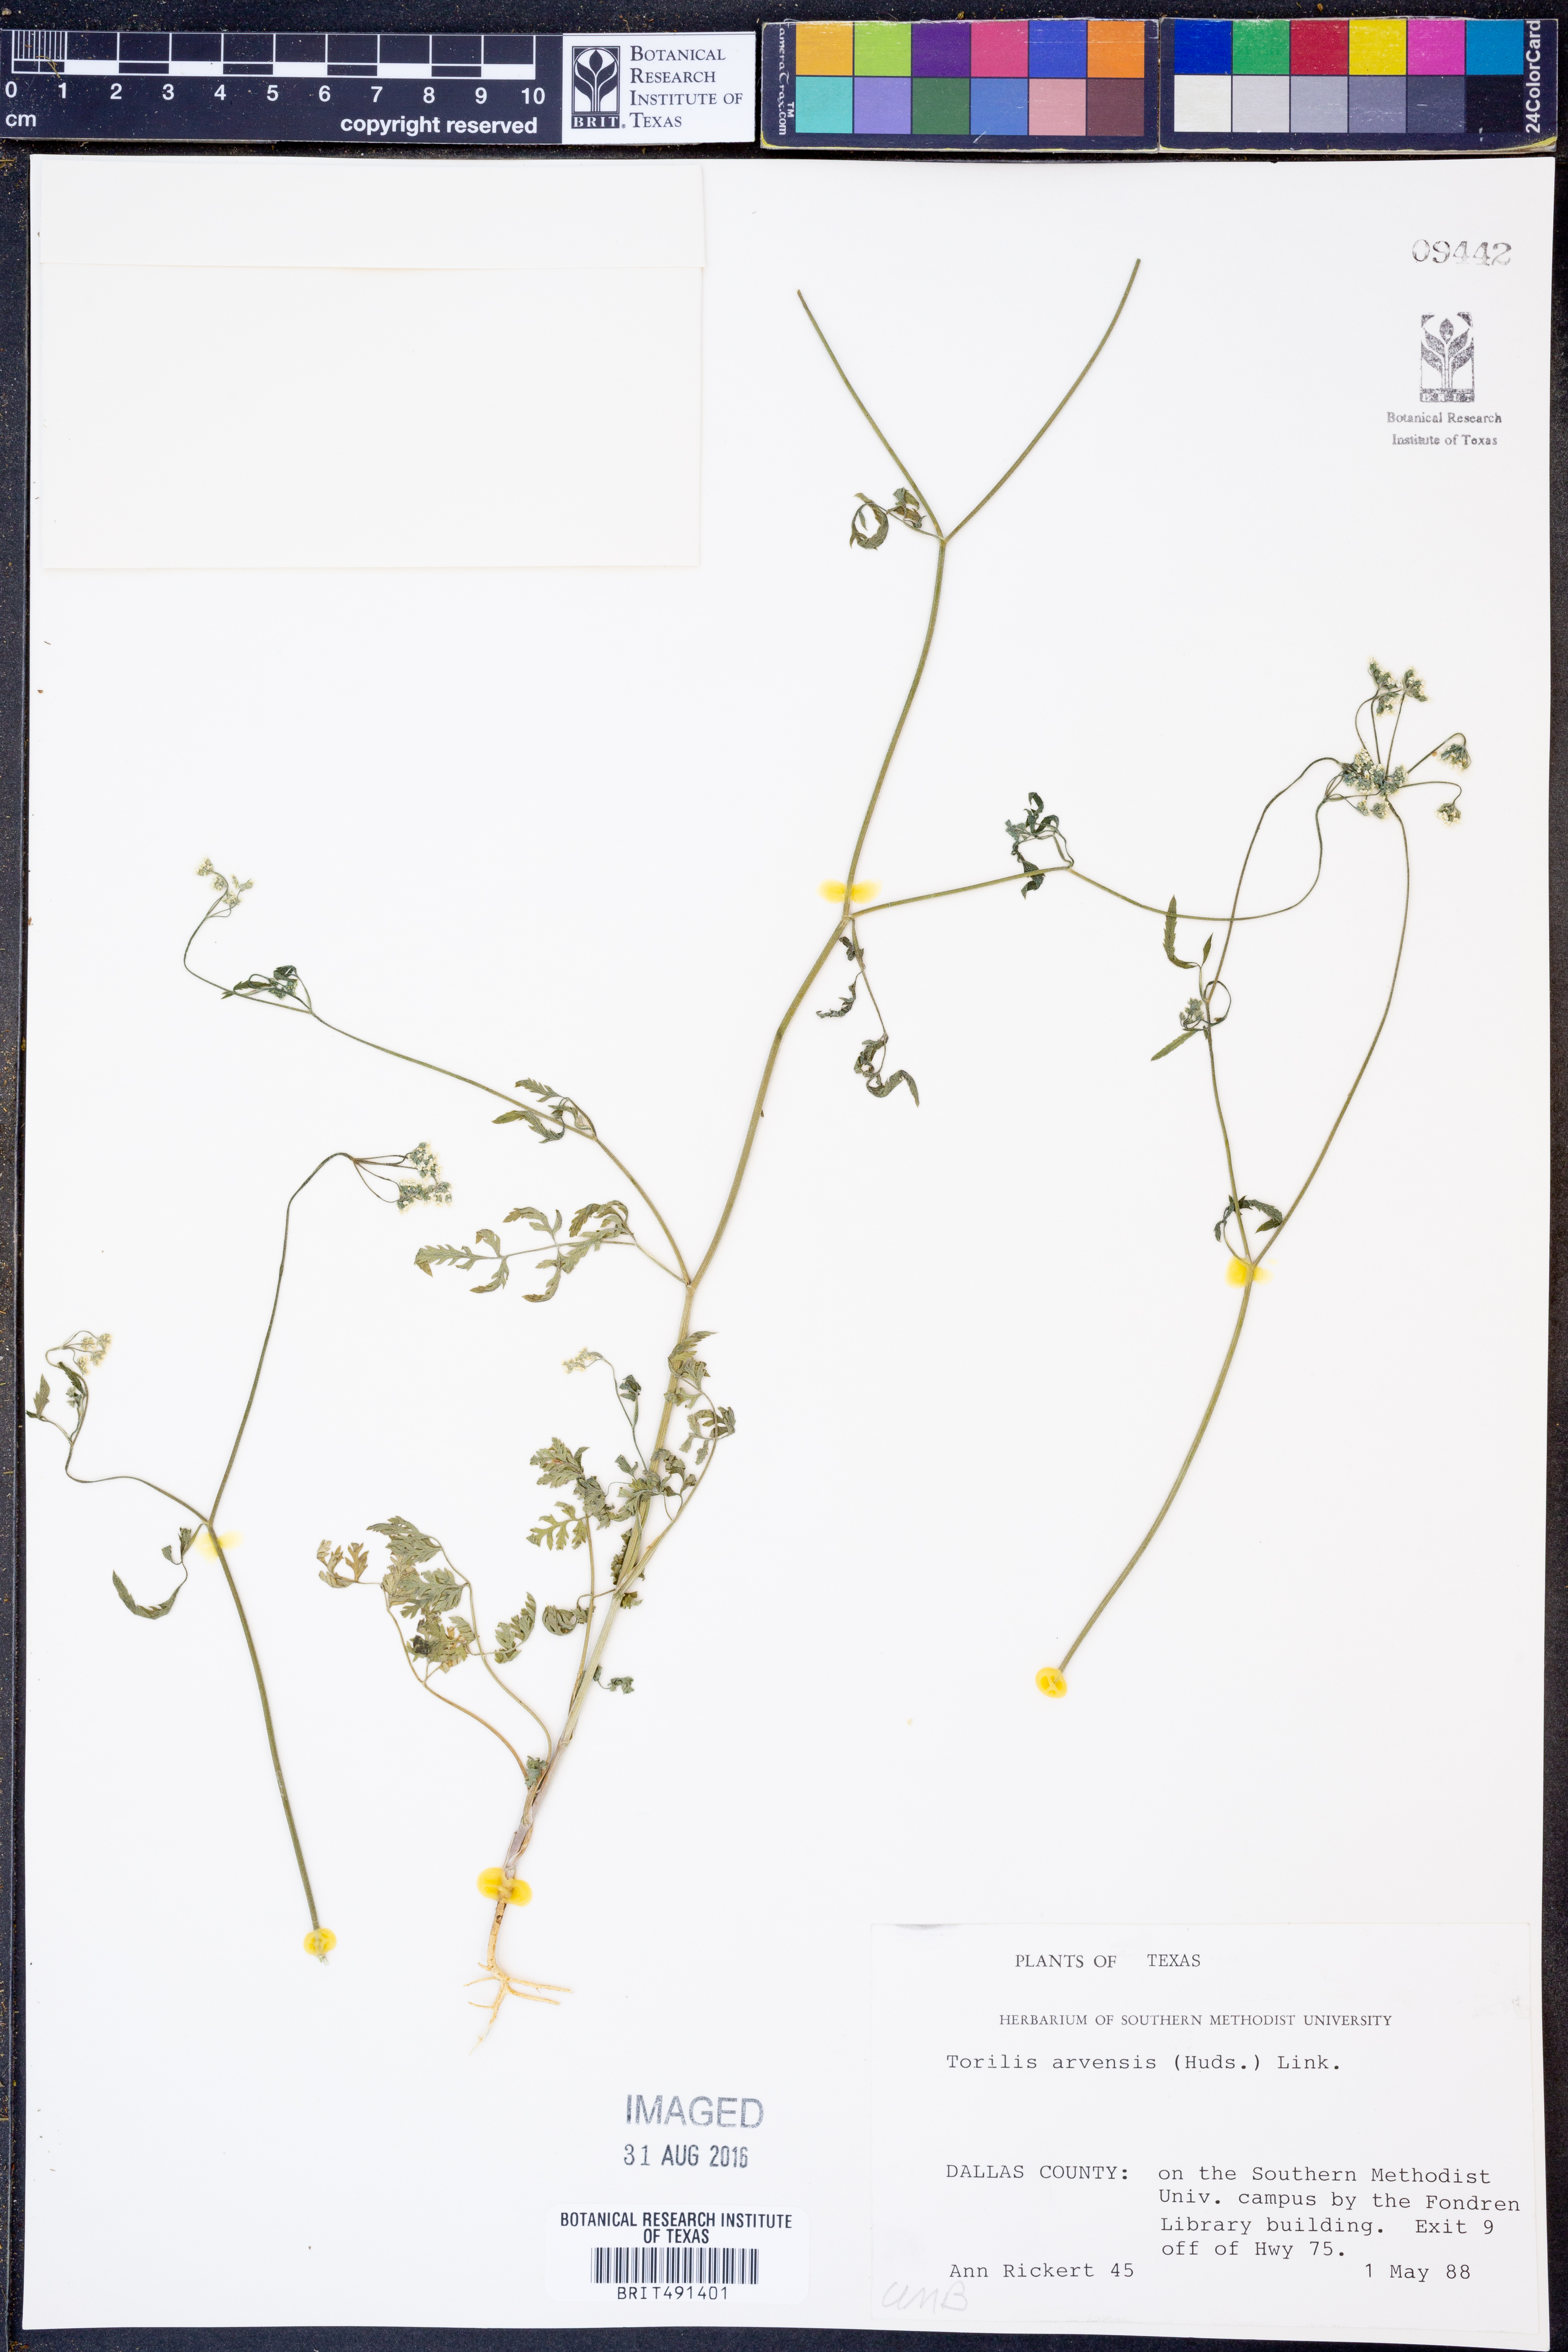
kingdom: Plantae
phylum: Tracheophyta
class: Magnoliopsida
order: Apiales
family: Apiaceae
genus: Torilis
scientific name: Torilis arvensis
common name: Spreading hedge-parsley
